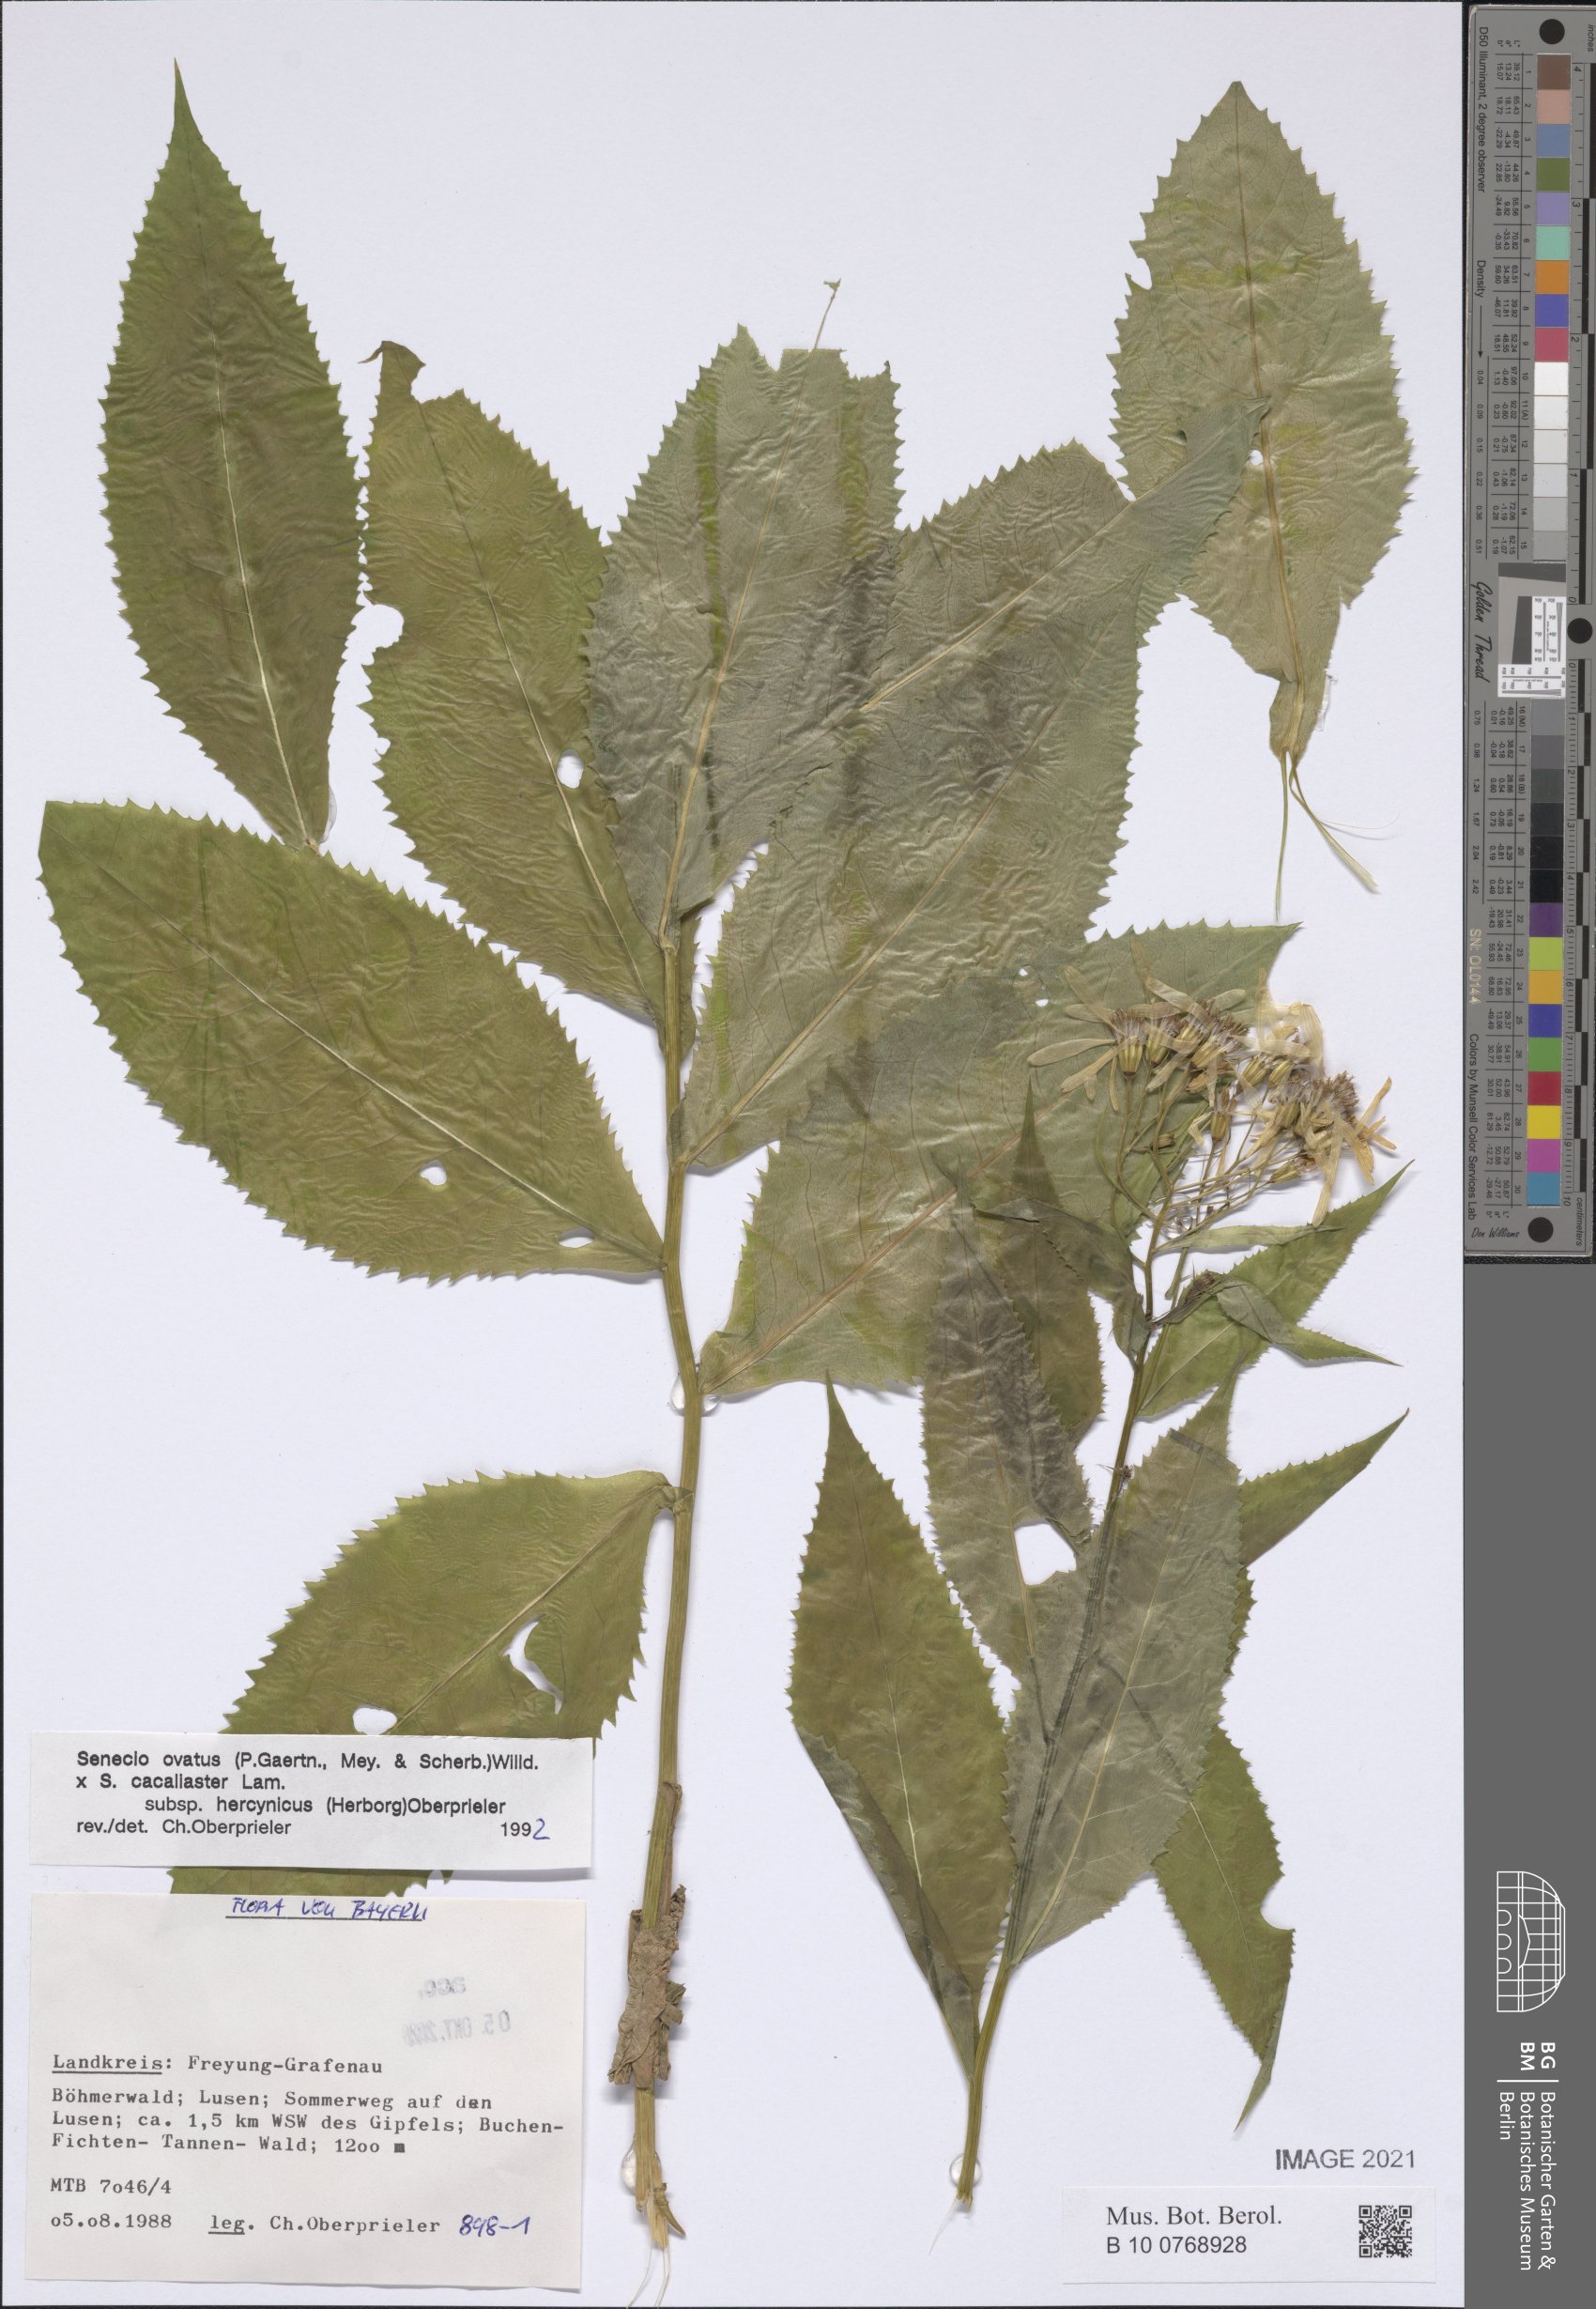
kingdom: Plantae
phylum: Tracheophyta
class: Magnoliopsida
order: Asterales
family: Asteraceae
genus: Senecio
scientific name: Senecio ovatus
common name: Wood ragwort
